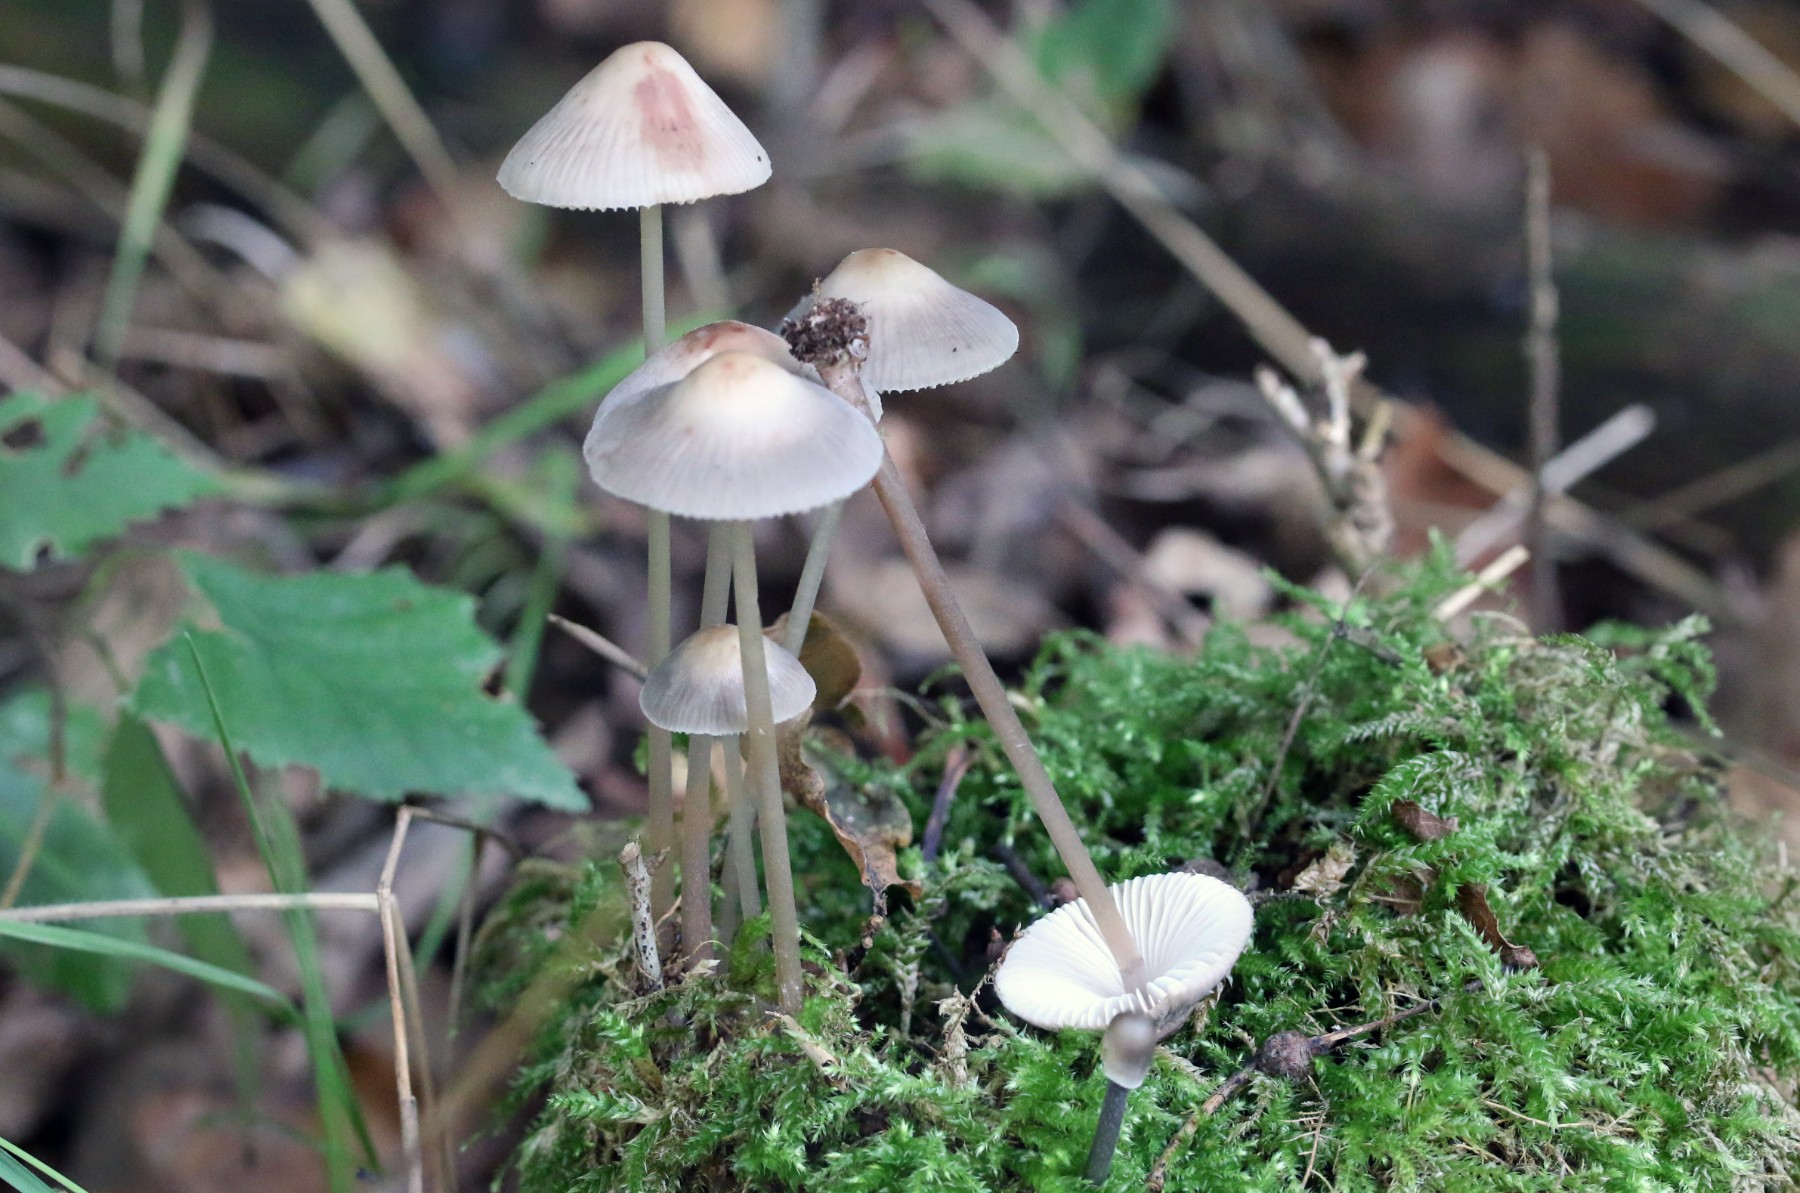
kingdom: Fungi
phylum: Basidiomycota
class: Agaricomycetes
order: Agaricales
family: Mycenaceae
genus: Mycena
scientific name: Mycena polygramma
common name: mangestribet huesvamp
